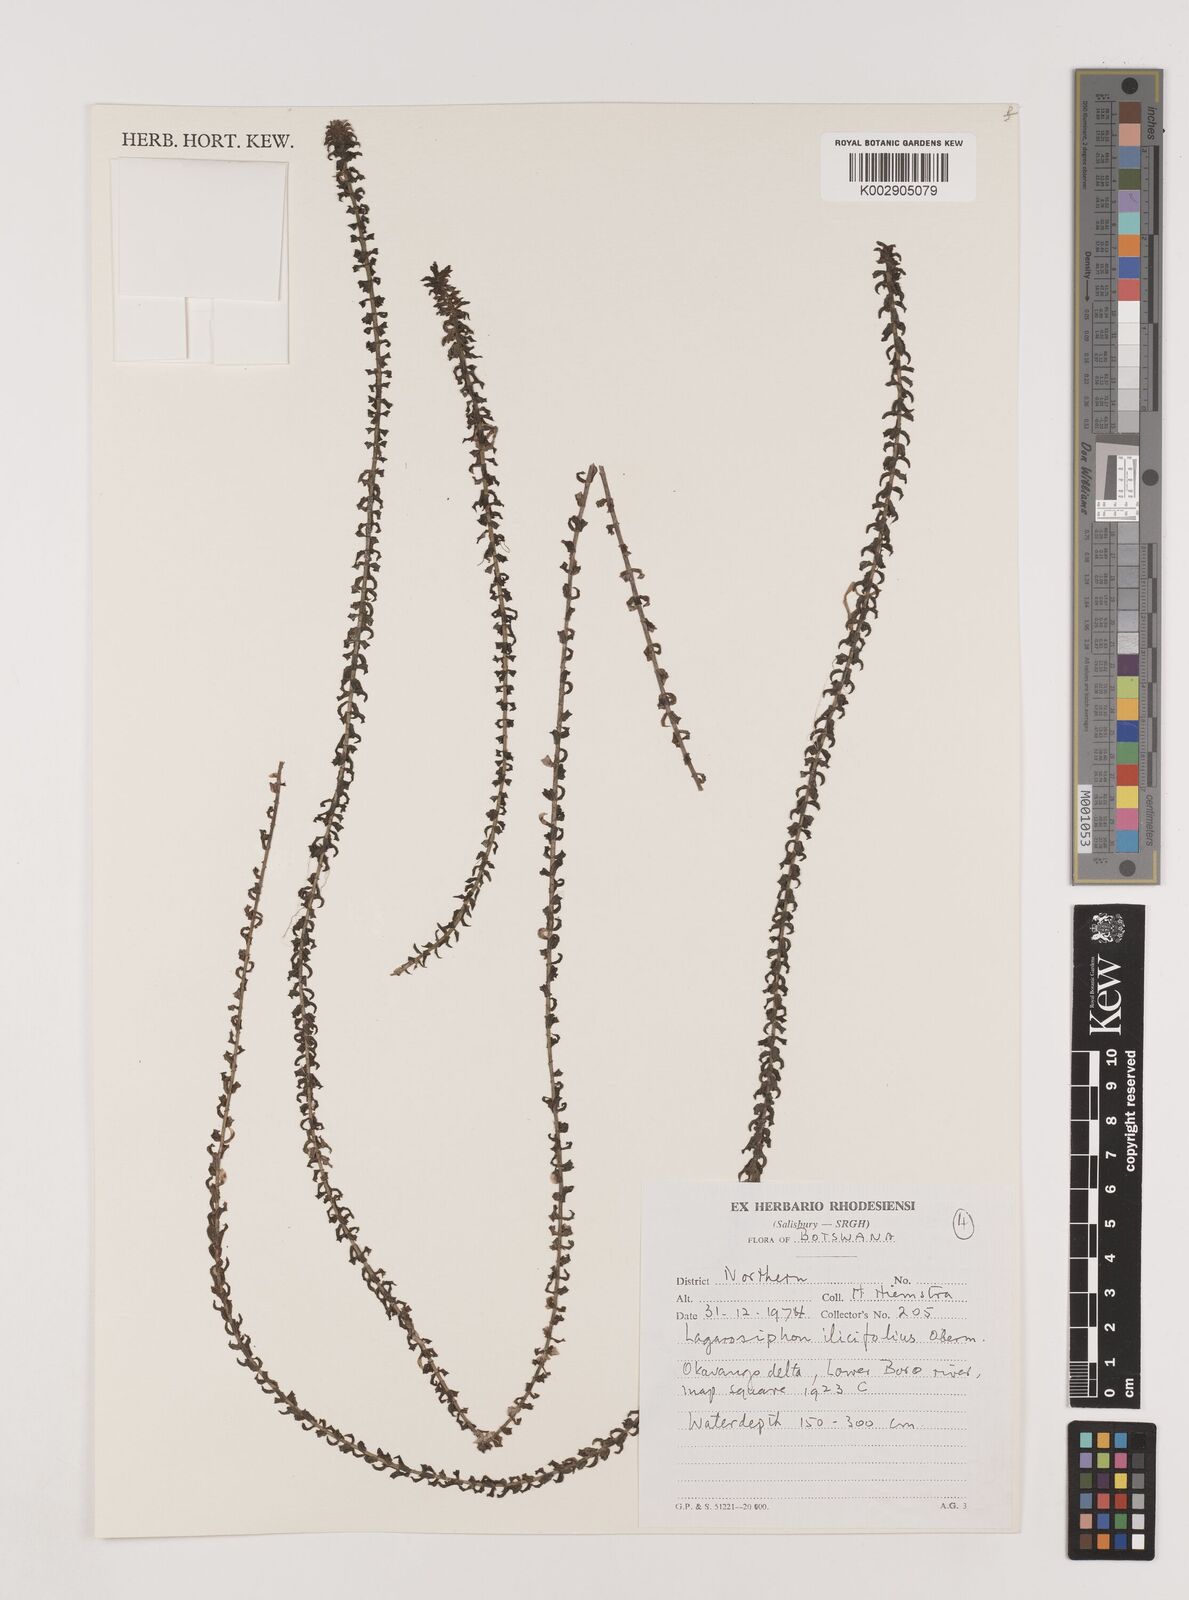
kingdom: Plantae
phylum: Tracheophyta
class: Liliopsida
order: Alismatales
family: Hydrocharitaceae
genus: Lagarosiphon
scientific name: Lagarosiphon ilicifolius
